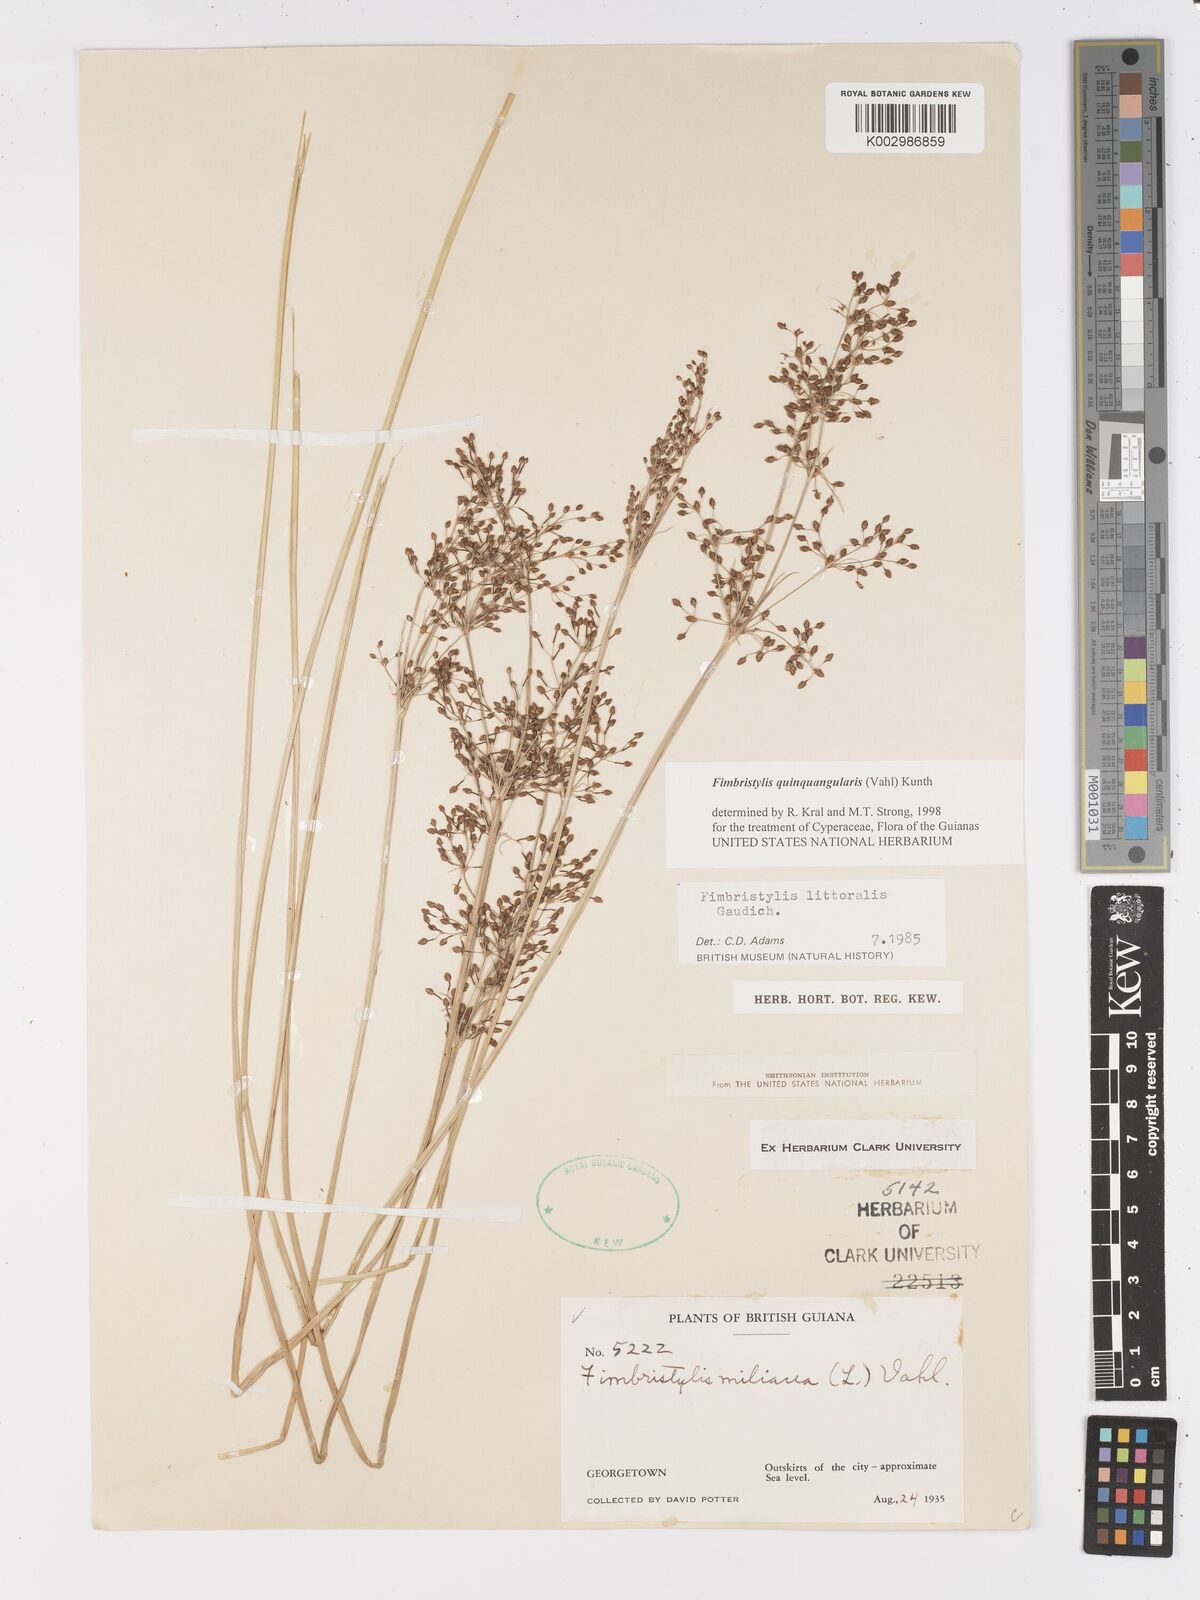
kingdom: Plantae
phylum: Tracheophyta
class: Liliopsida
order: Poales
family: Cyperaceae
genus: Fimbristylis
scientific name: Fimbristylis quinquangularis
